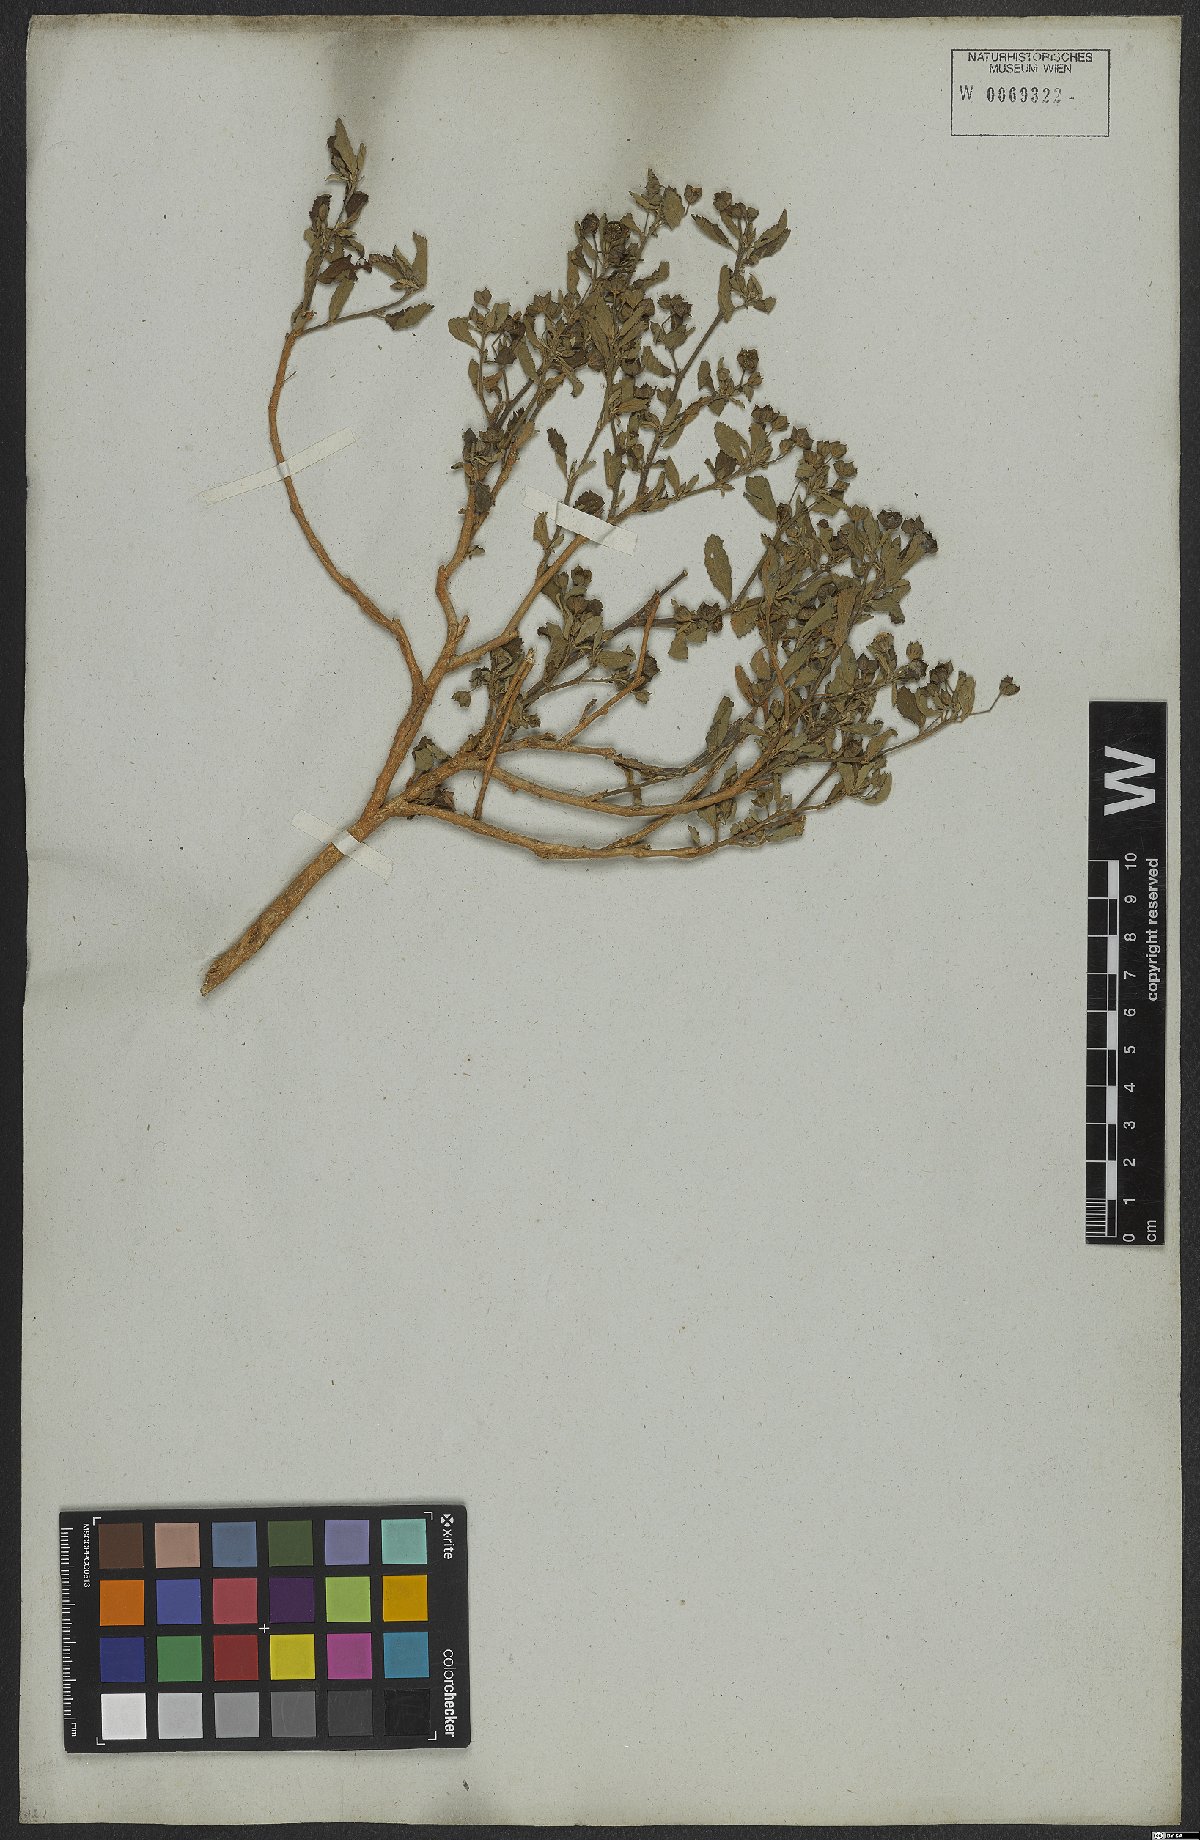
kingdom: Plantae
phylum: Tracheophyta
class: Magnoliopsida
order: Malvales
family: Malvaceae
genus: Sida
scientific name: Sida rhombifolia
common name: Queensland-hemp
